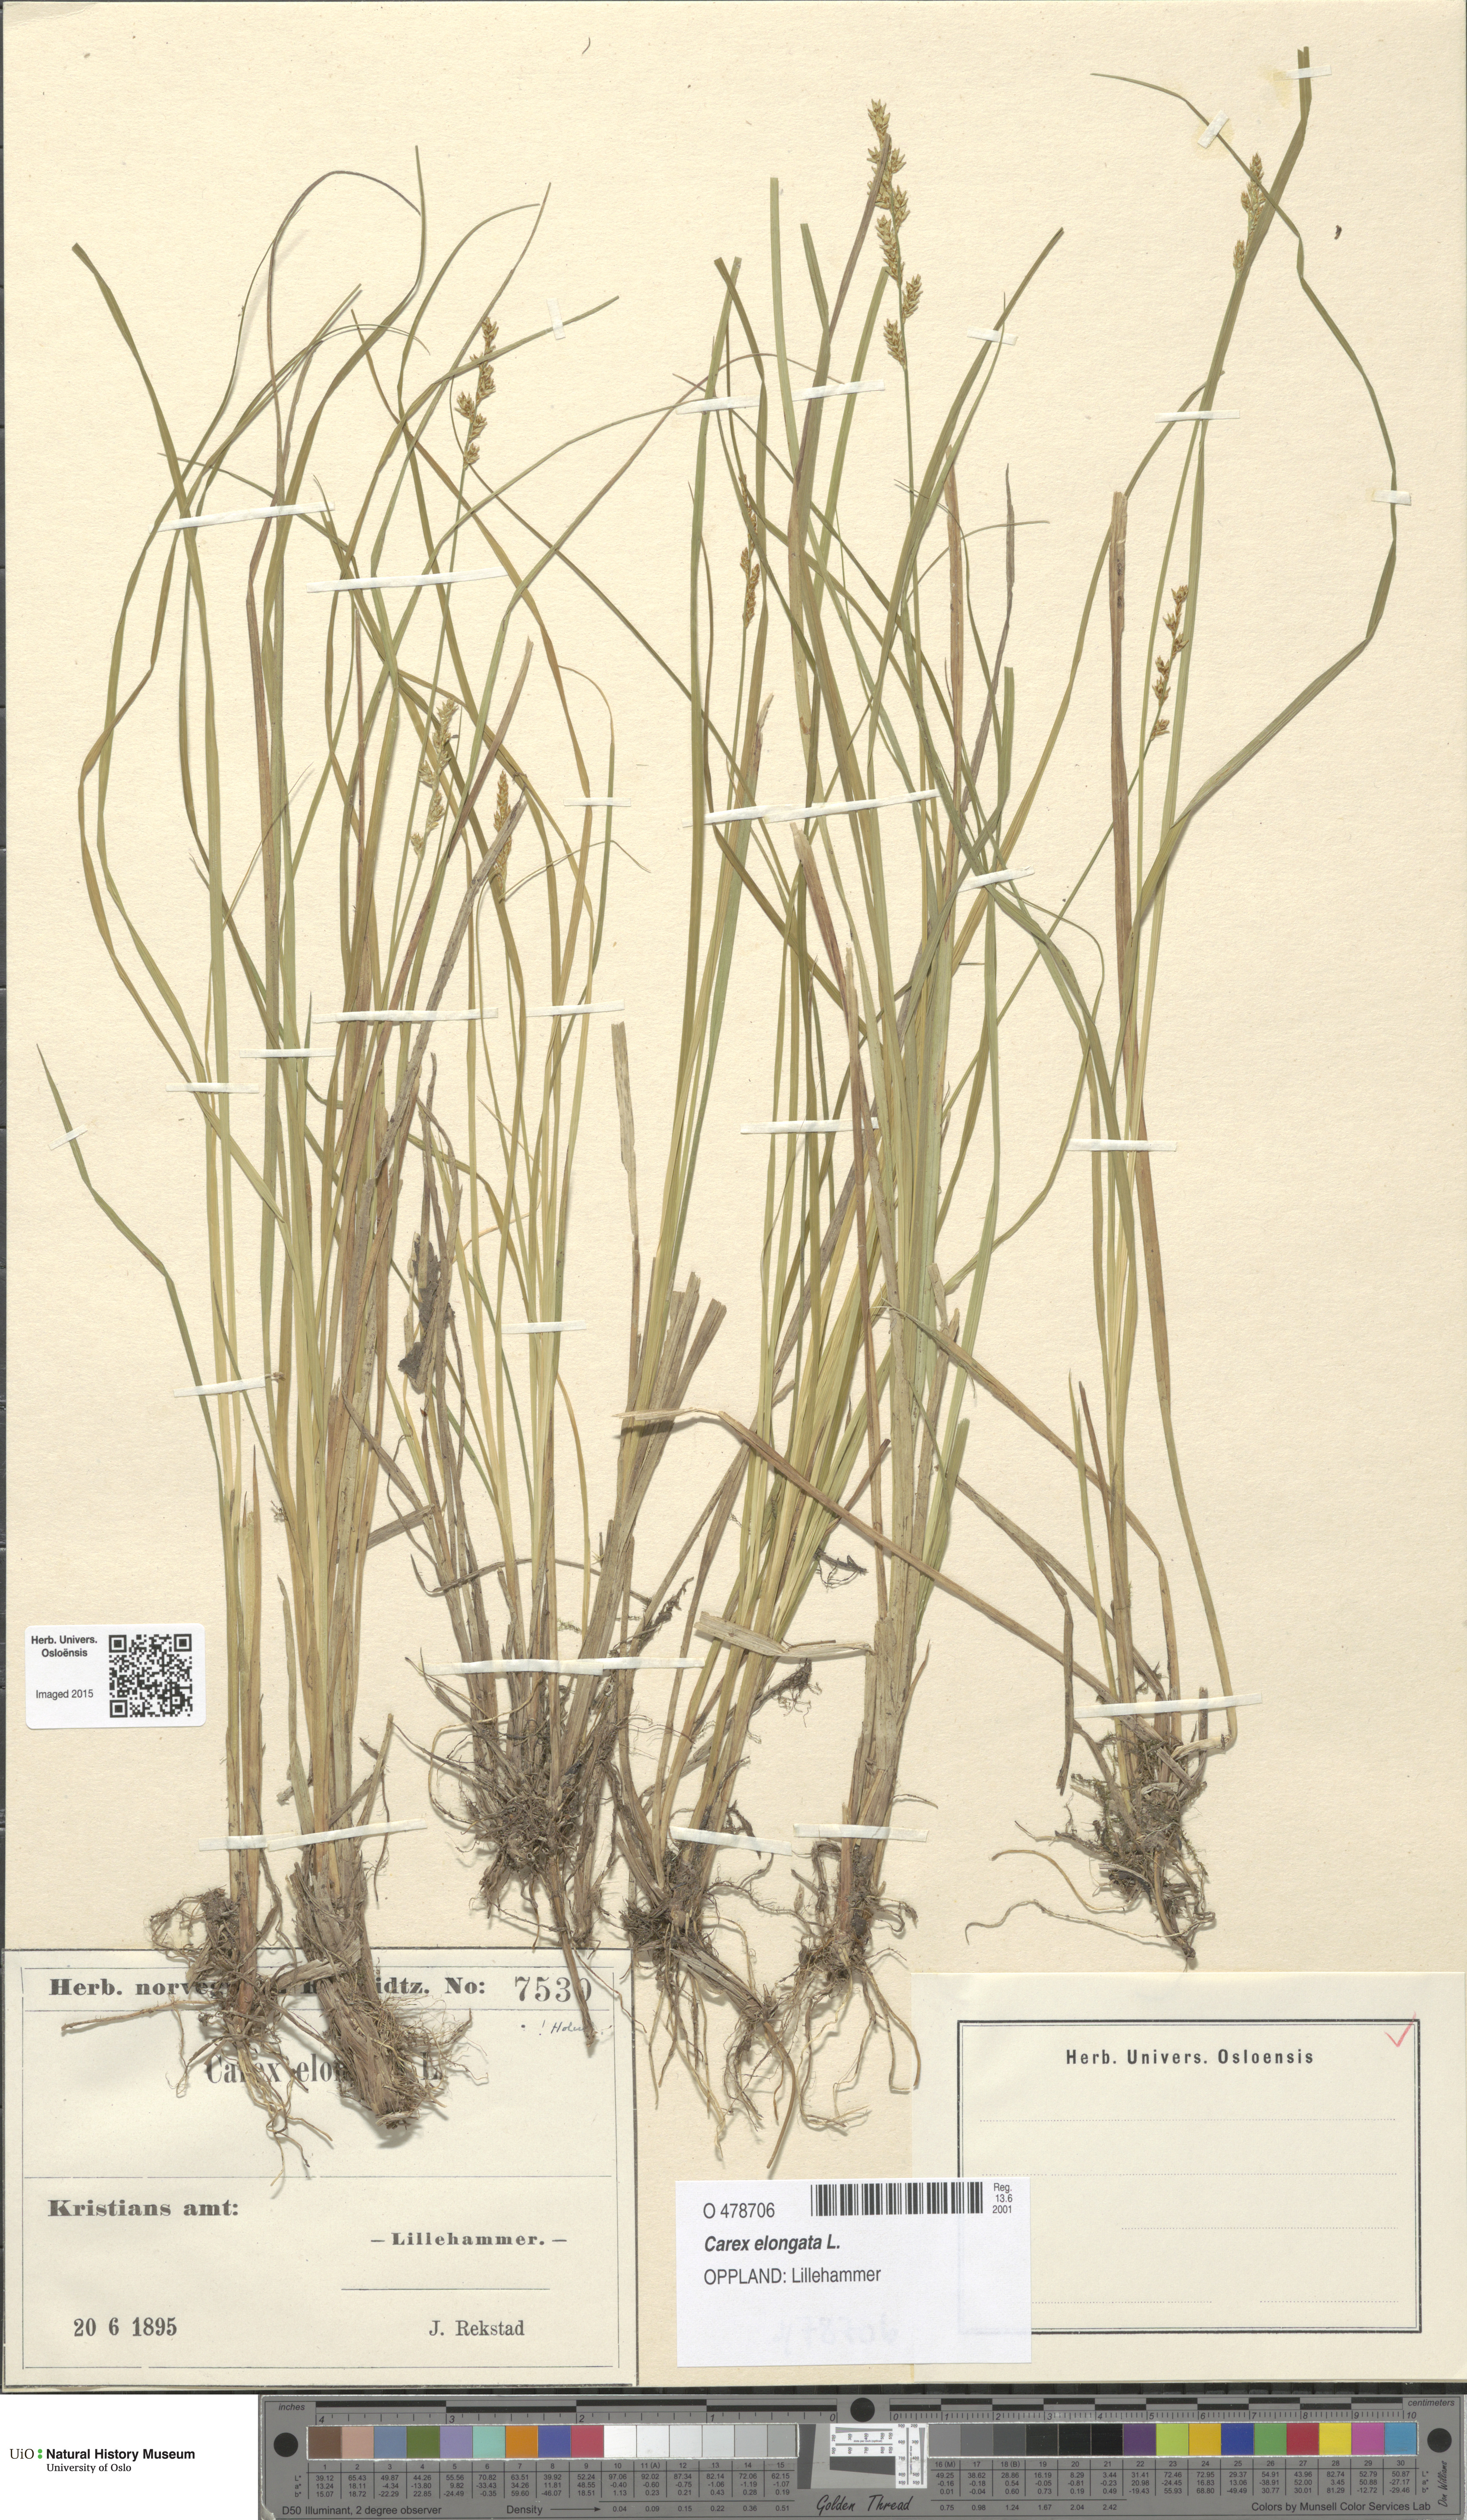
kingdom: Plantae
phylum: Tracheophyta
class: Liliopsida
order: Poales
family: Cyperaceae
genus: Carex
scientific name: Carex elongata
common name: Elongated sedge
